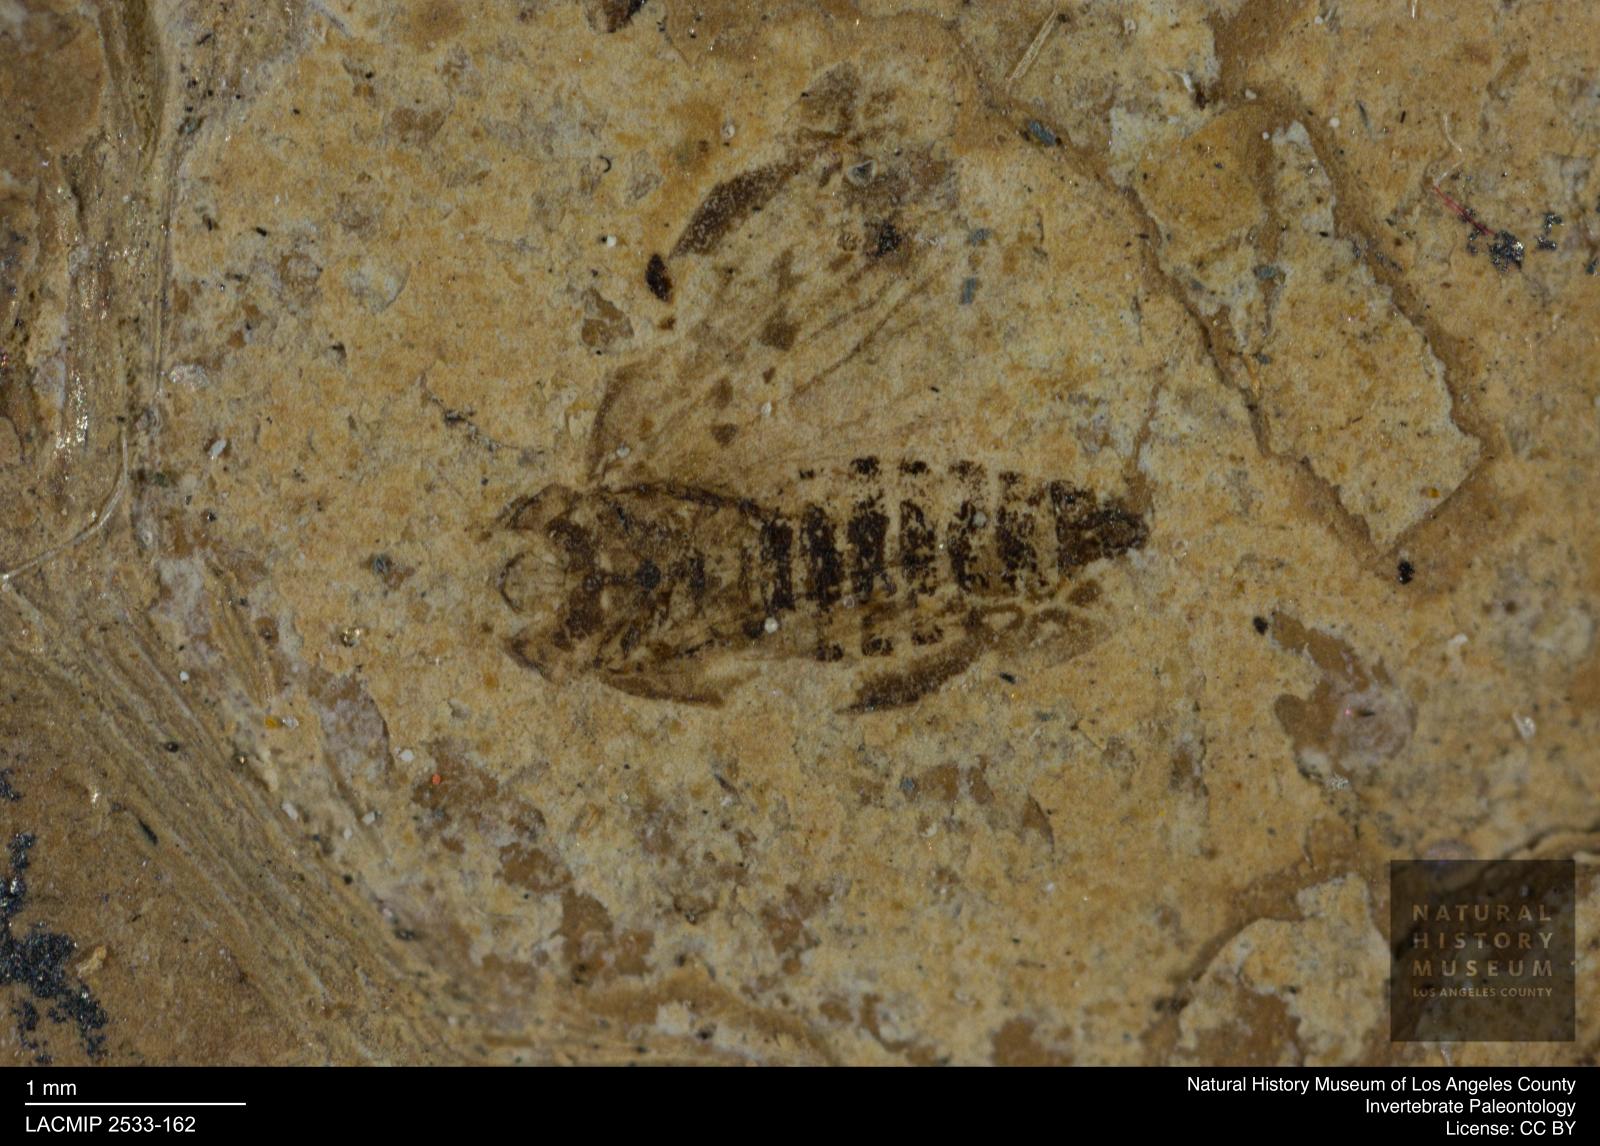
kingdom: Animalia
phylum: Arthropoda
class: Insecta
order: Hemiptera
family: Cicadellidae
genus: Deltocephalus
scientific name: Deltocephalus maculipennis
